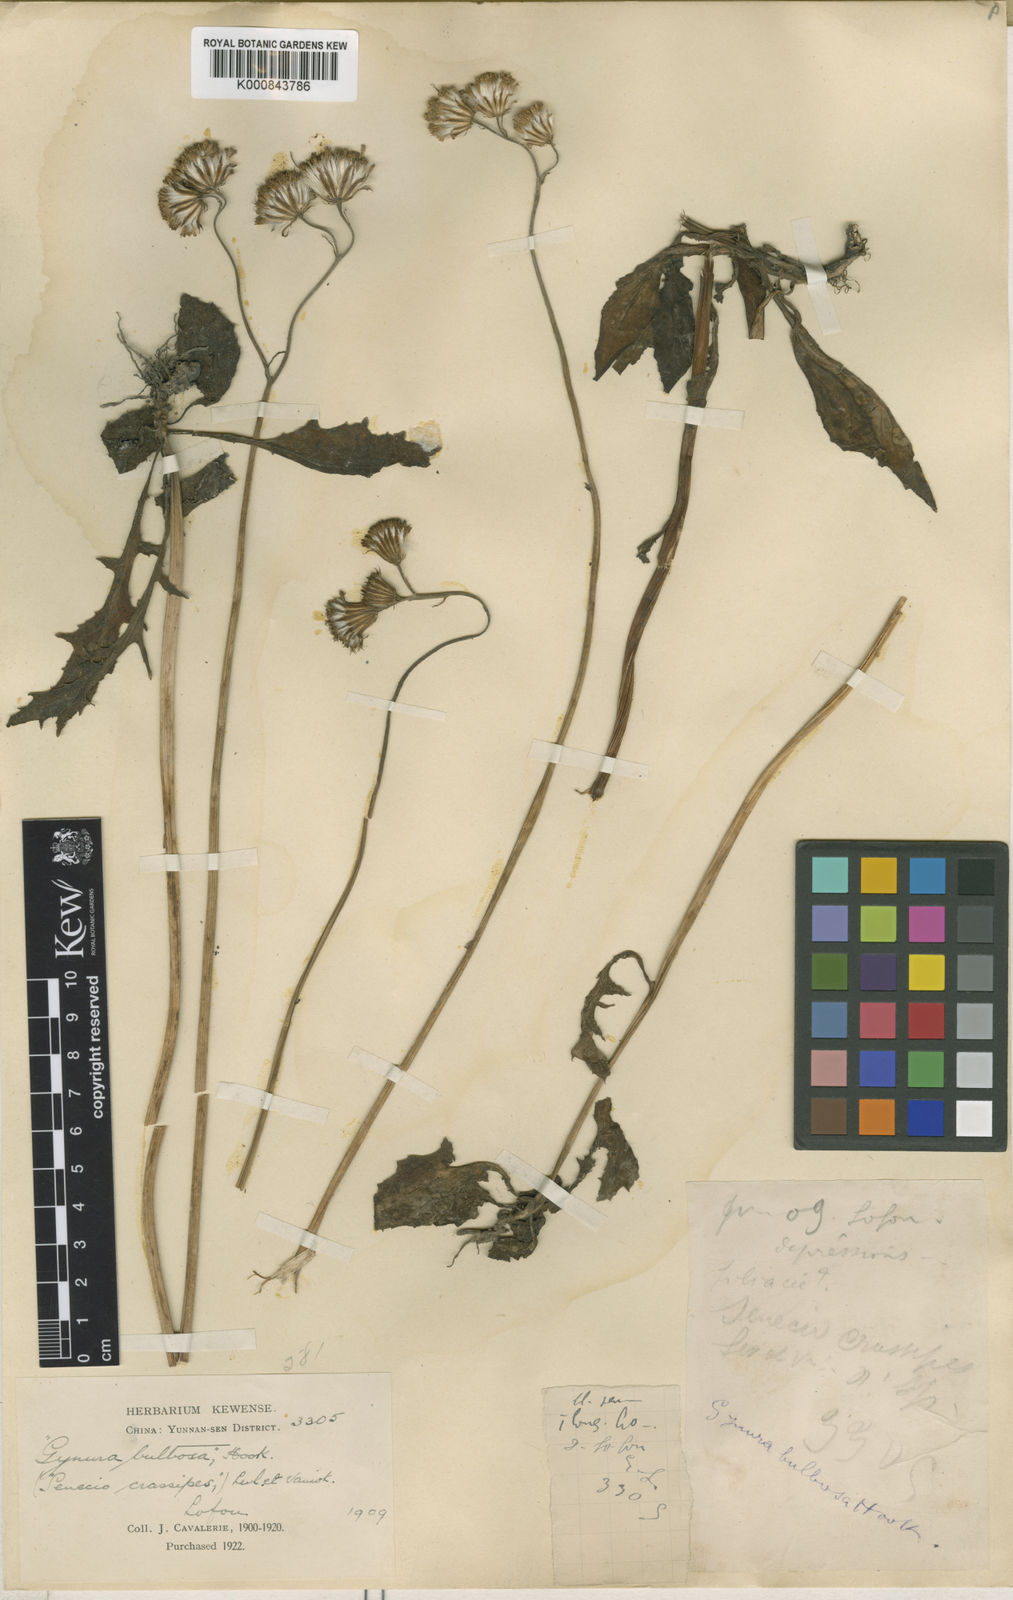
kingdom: Plantae
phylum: Tracheophyta
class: Magnoliopsida
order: Asterales
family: Asteraceae
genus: Gynura
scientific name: Gynura
